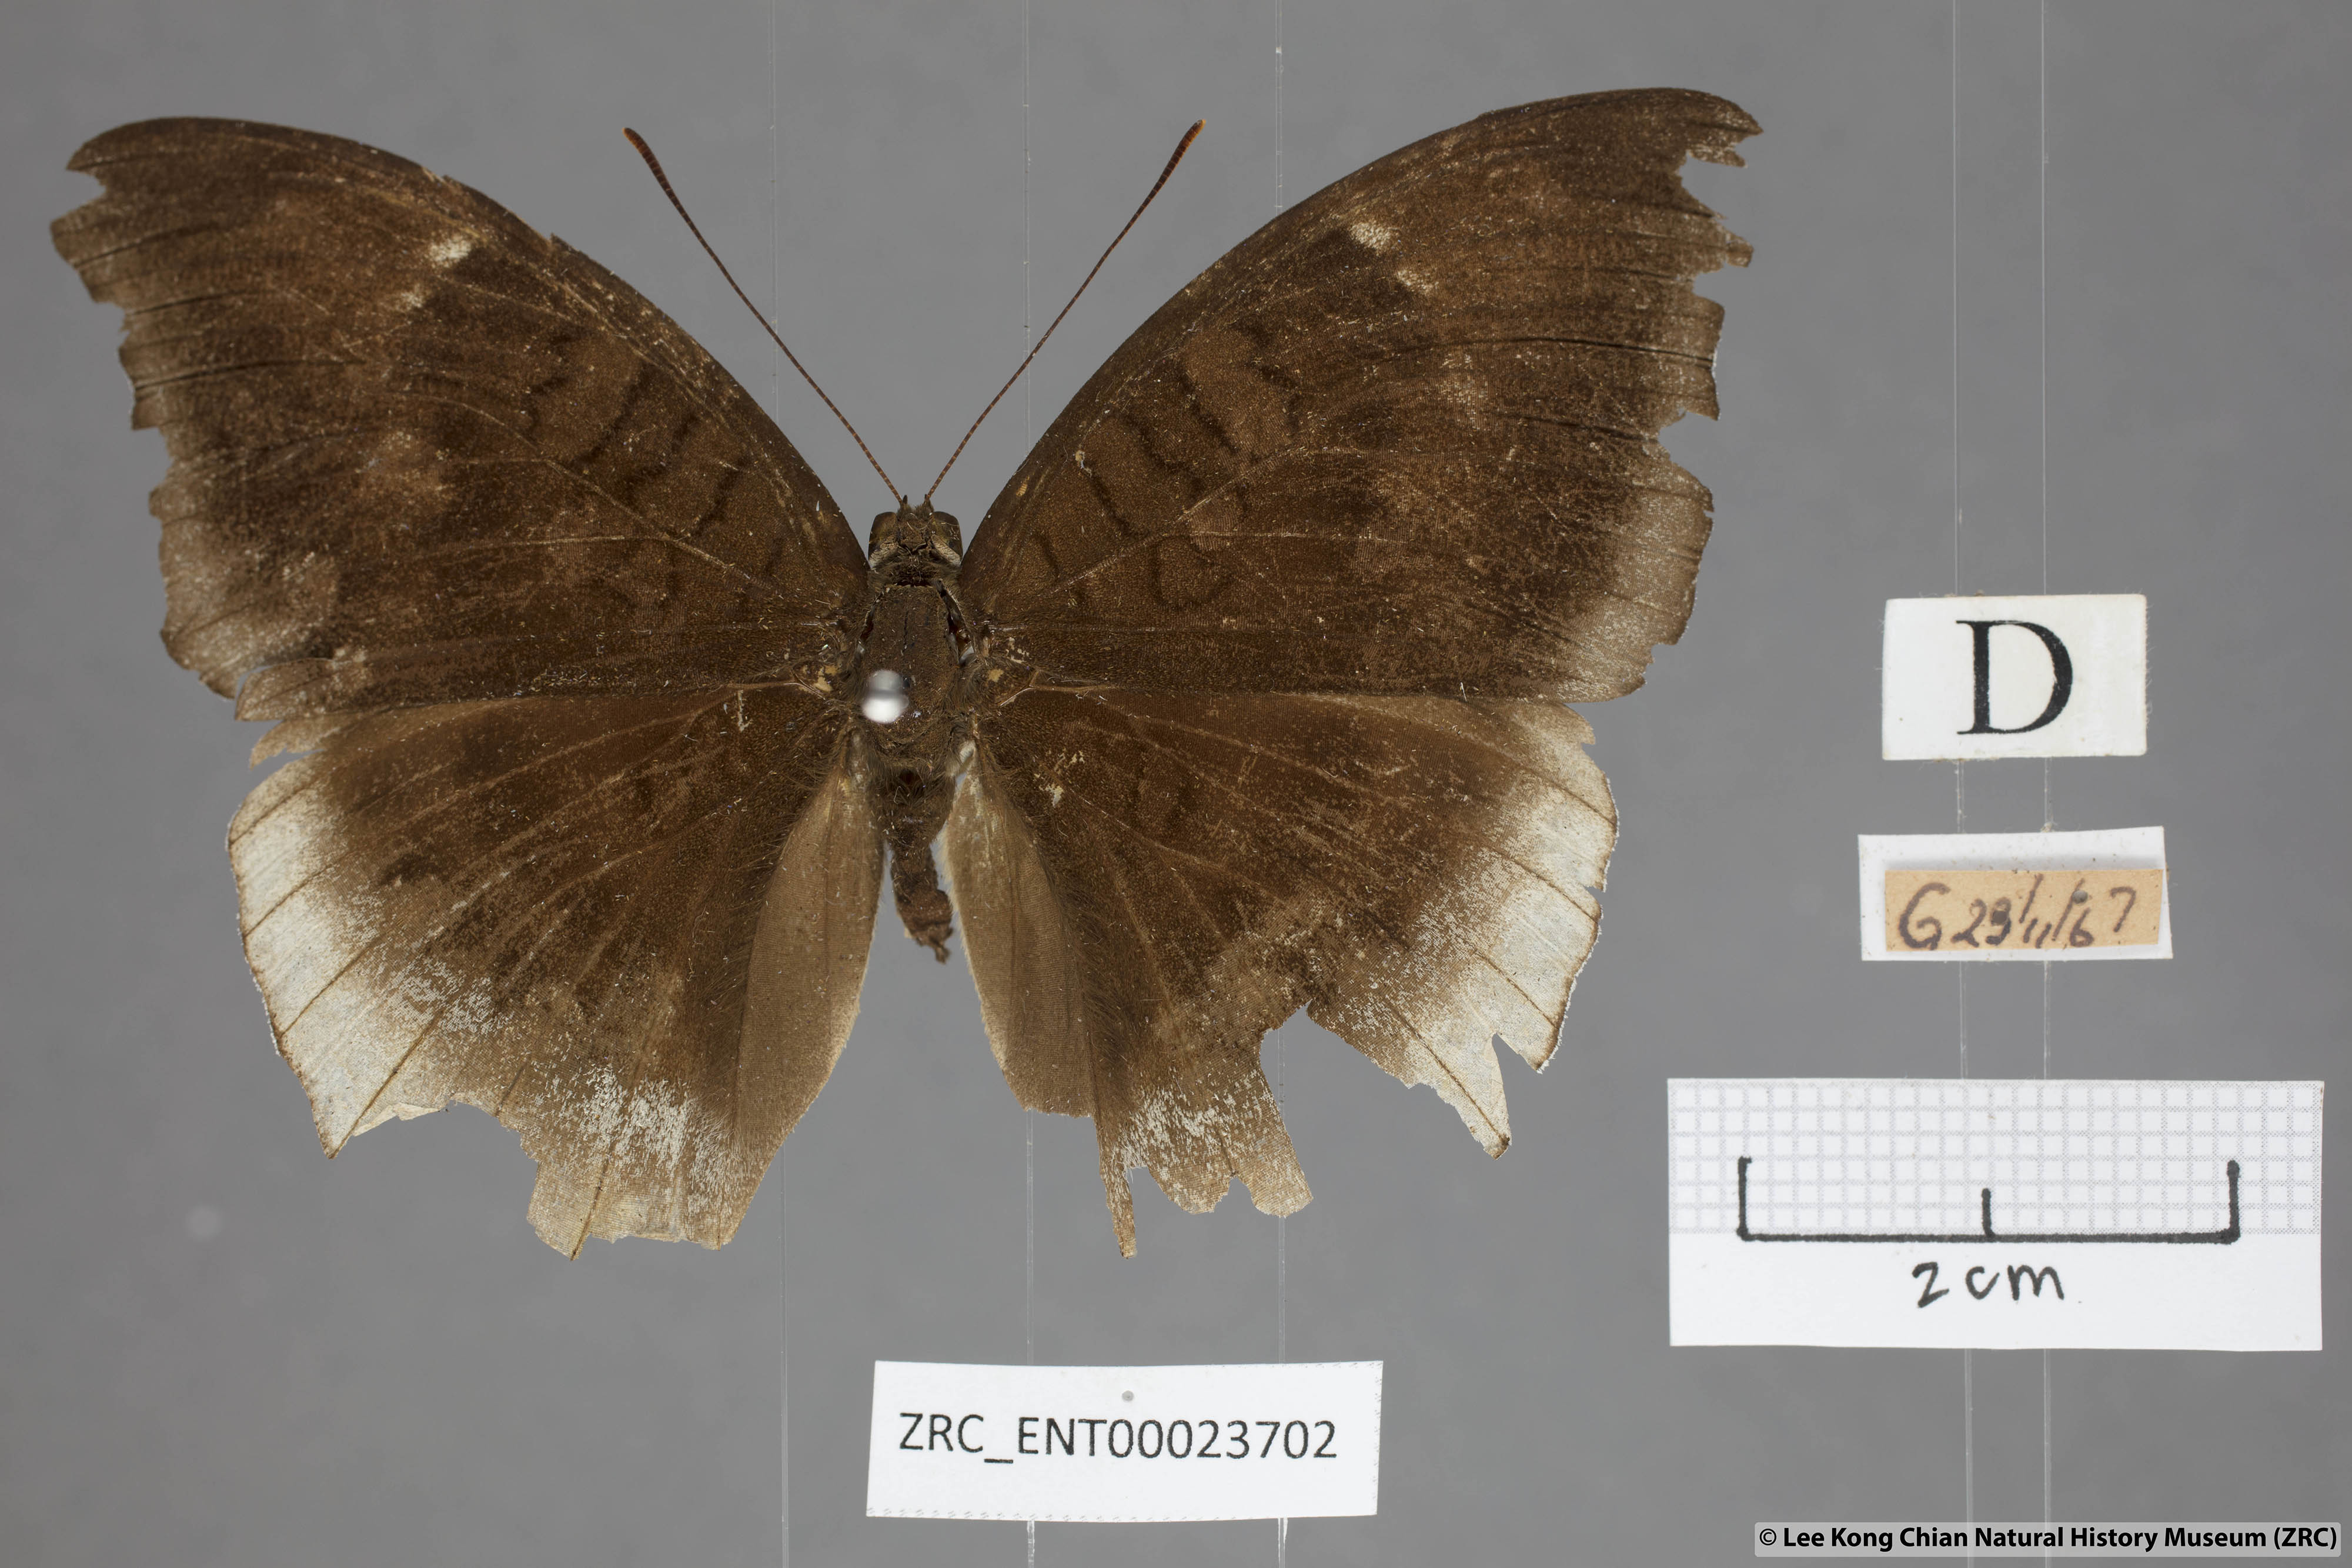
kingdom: Animalia
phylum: Arthropoda
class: Insecta
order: Lepidoptera
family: Nymphalidae
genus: Tanaecia
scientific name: Tanaecia lepidea
